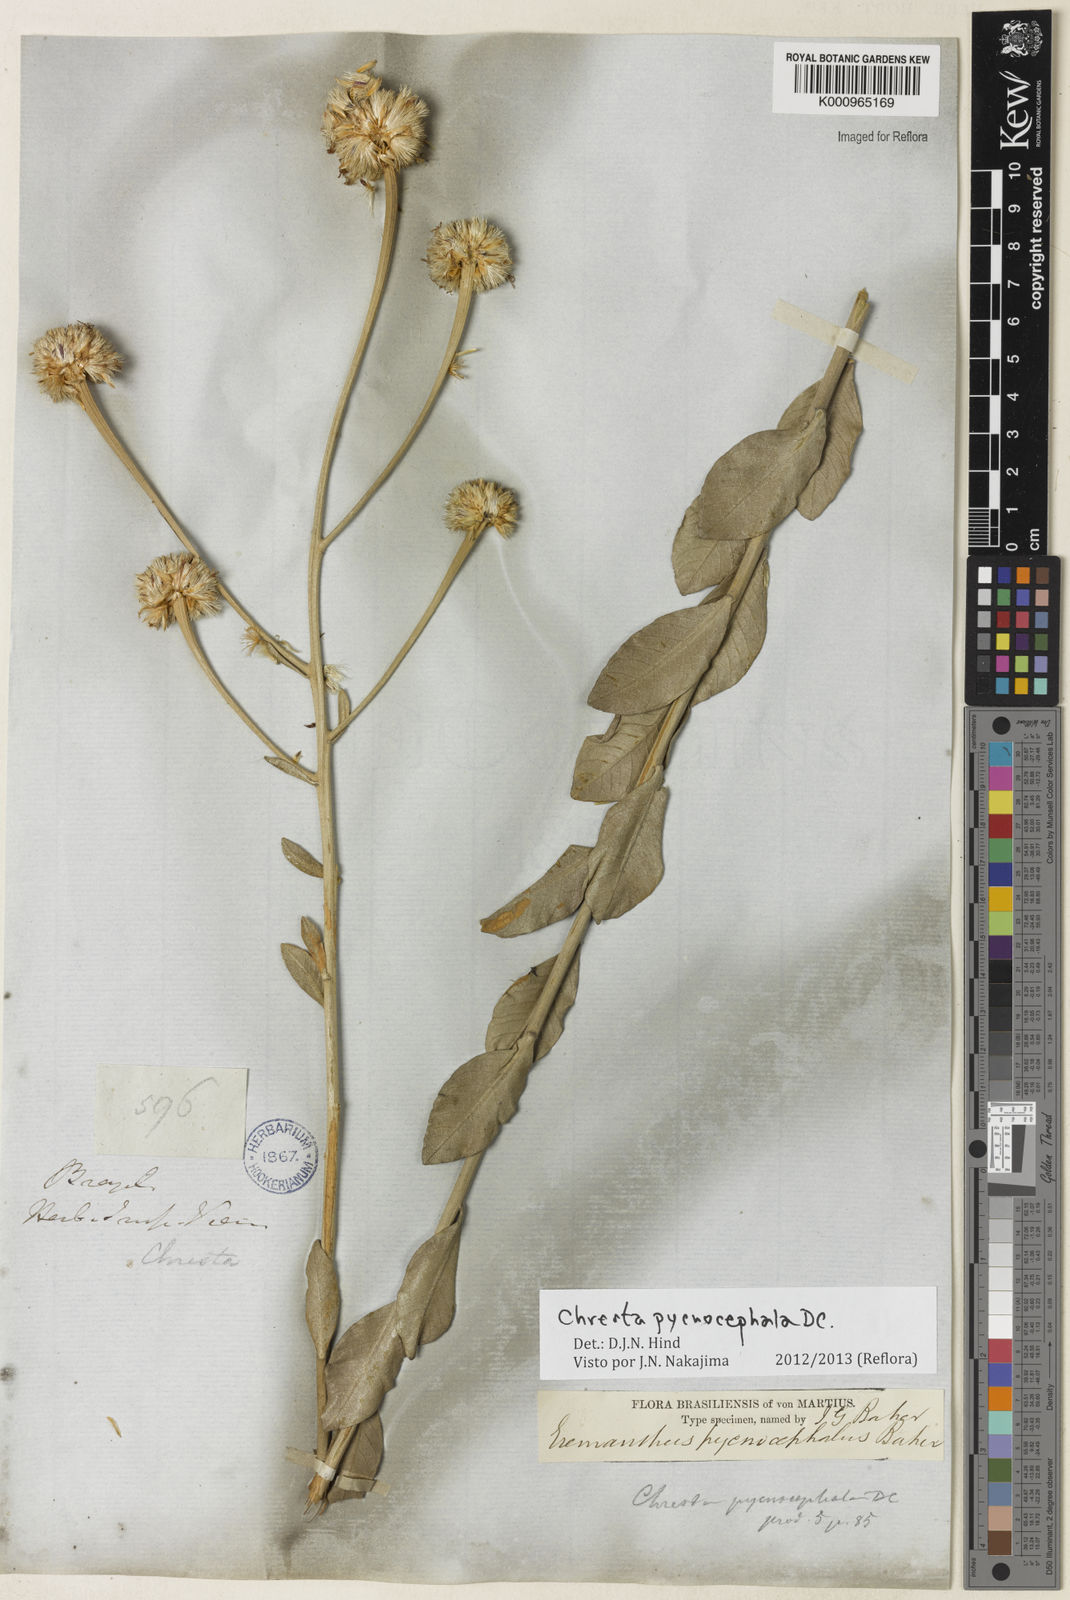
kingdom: Plantae
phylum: Tracheophyta
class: Magnoliopsida
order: Asterales
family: Asteraceae
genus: Chresta
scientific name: Chresta pycnocephala
